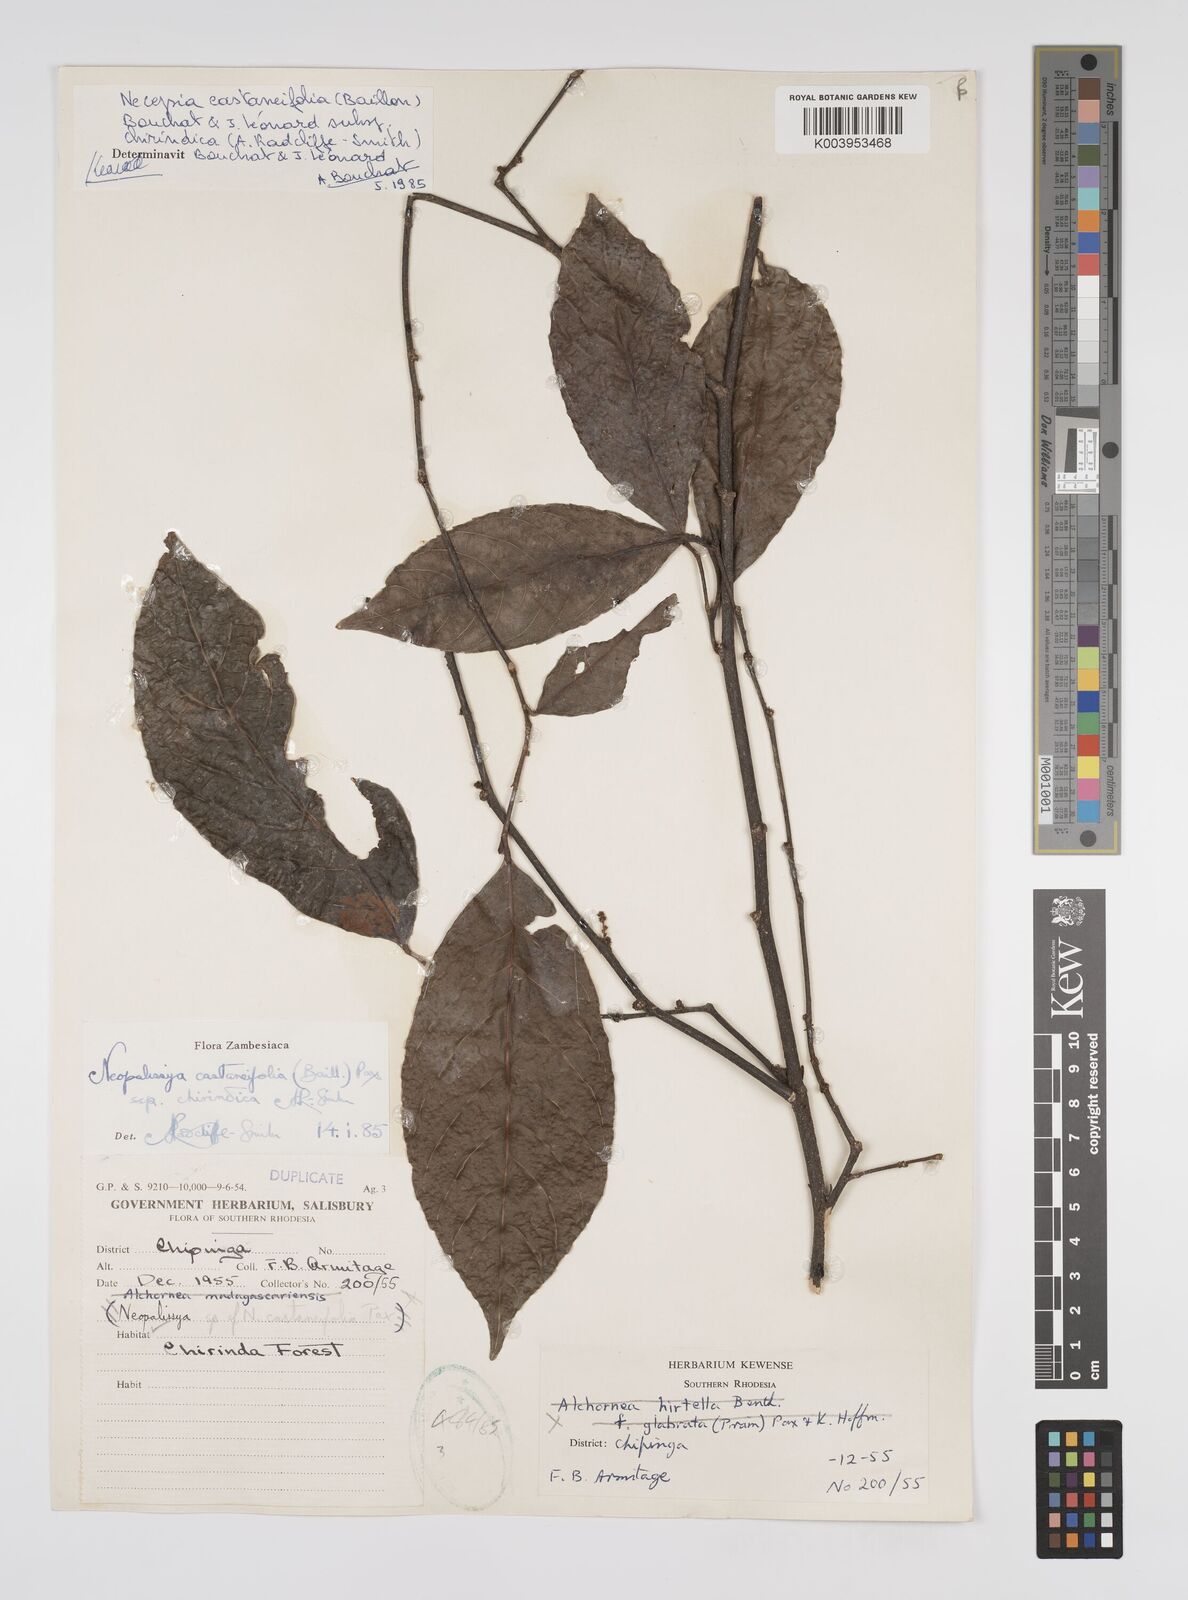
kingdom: Plantae
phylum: Tracheophyta
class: Magnoliopsida
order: Malpighiales
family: Euphorbiaceae
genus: Necepsia
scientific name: Necepsia castaneifolia
